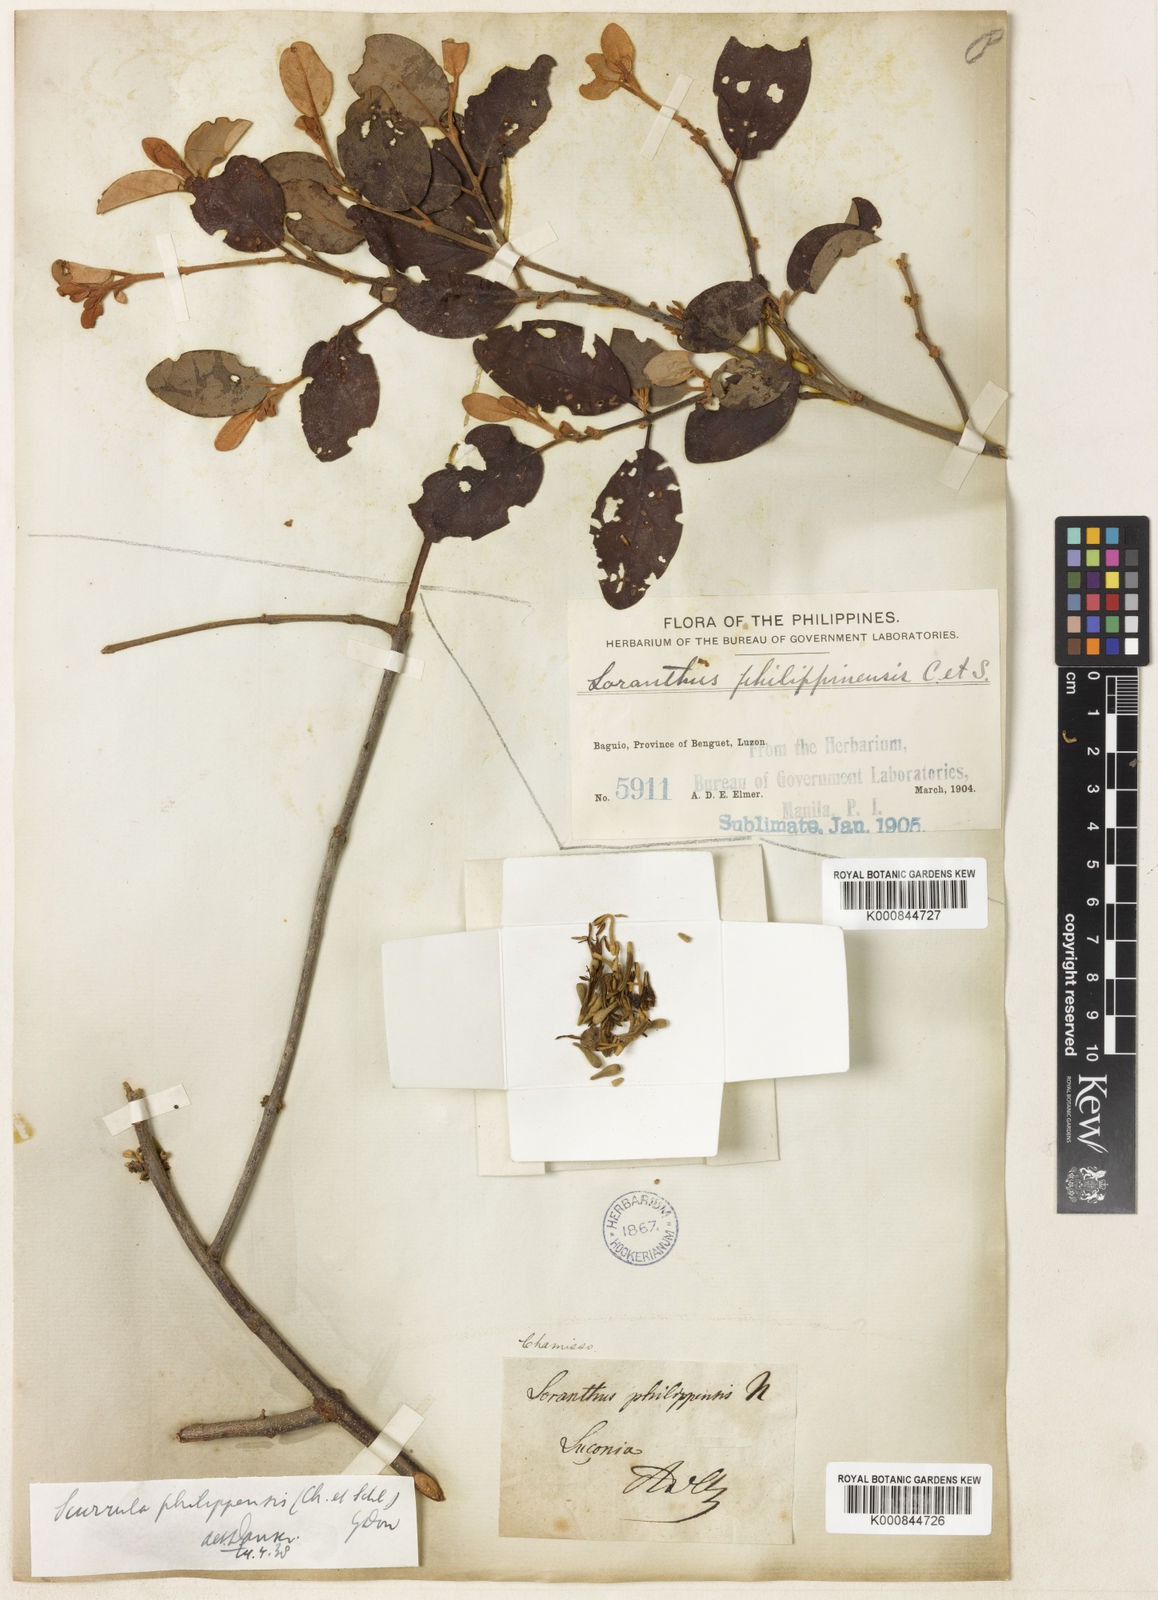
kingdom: Plantae
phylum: Tracheophyta
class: Magnoliopsida
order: Santalales
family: Loranthaceae
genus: Scurrula
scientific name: Scurrula atropurpurea
